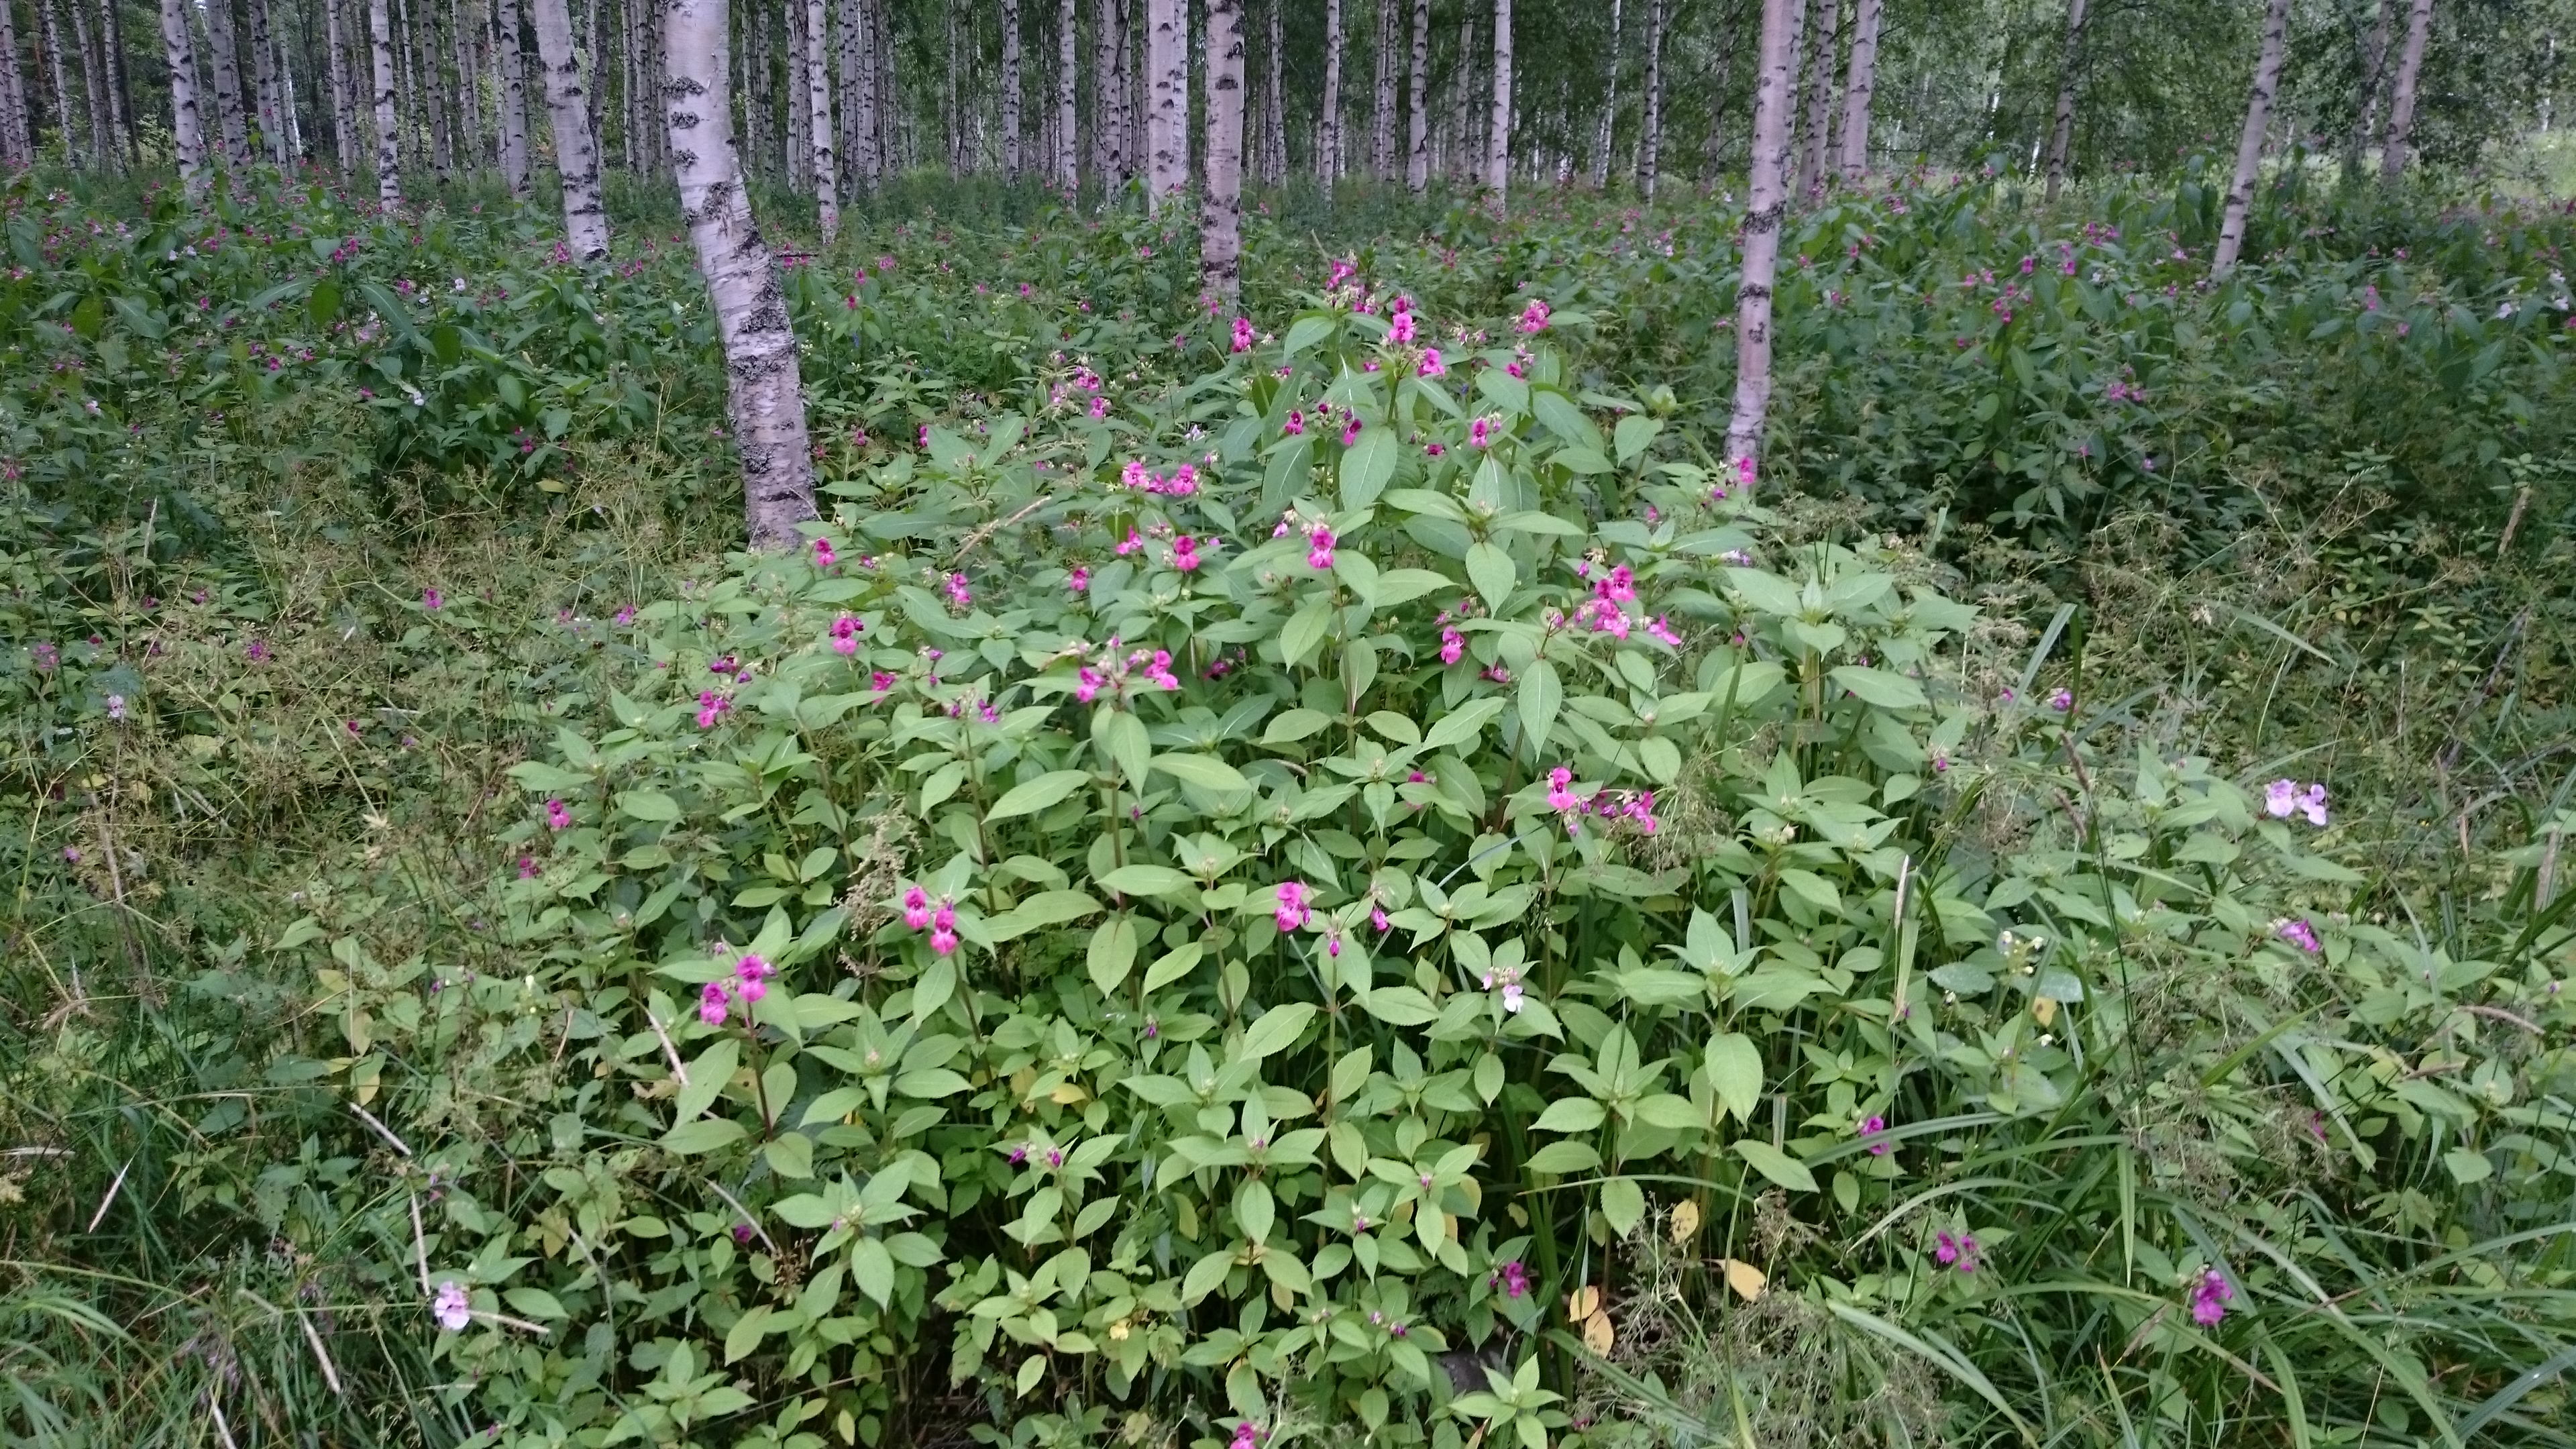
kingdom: Plantae
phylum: Tracheophyta
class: Magnoliopsida
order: Ericales
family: Balsaminaceae
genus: Impatiens
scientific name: Impatiens glandulifera
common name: Himalayan balsam
